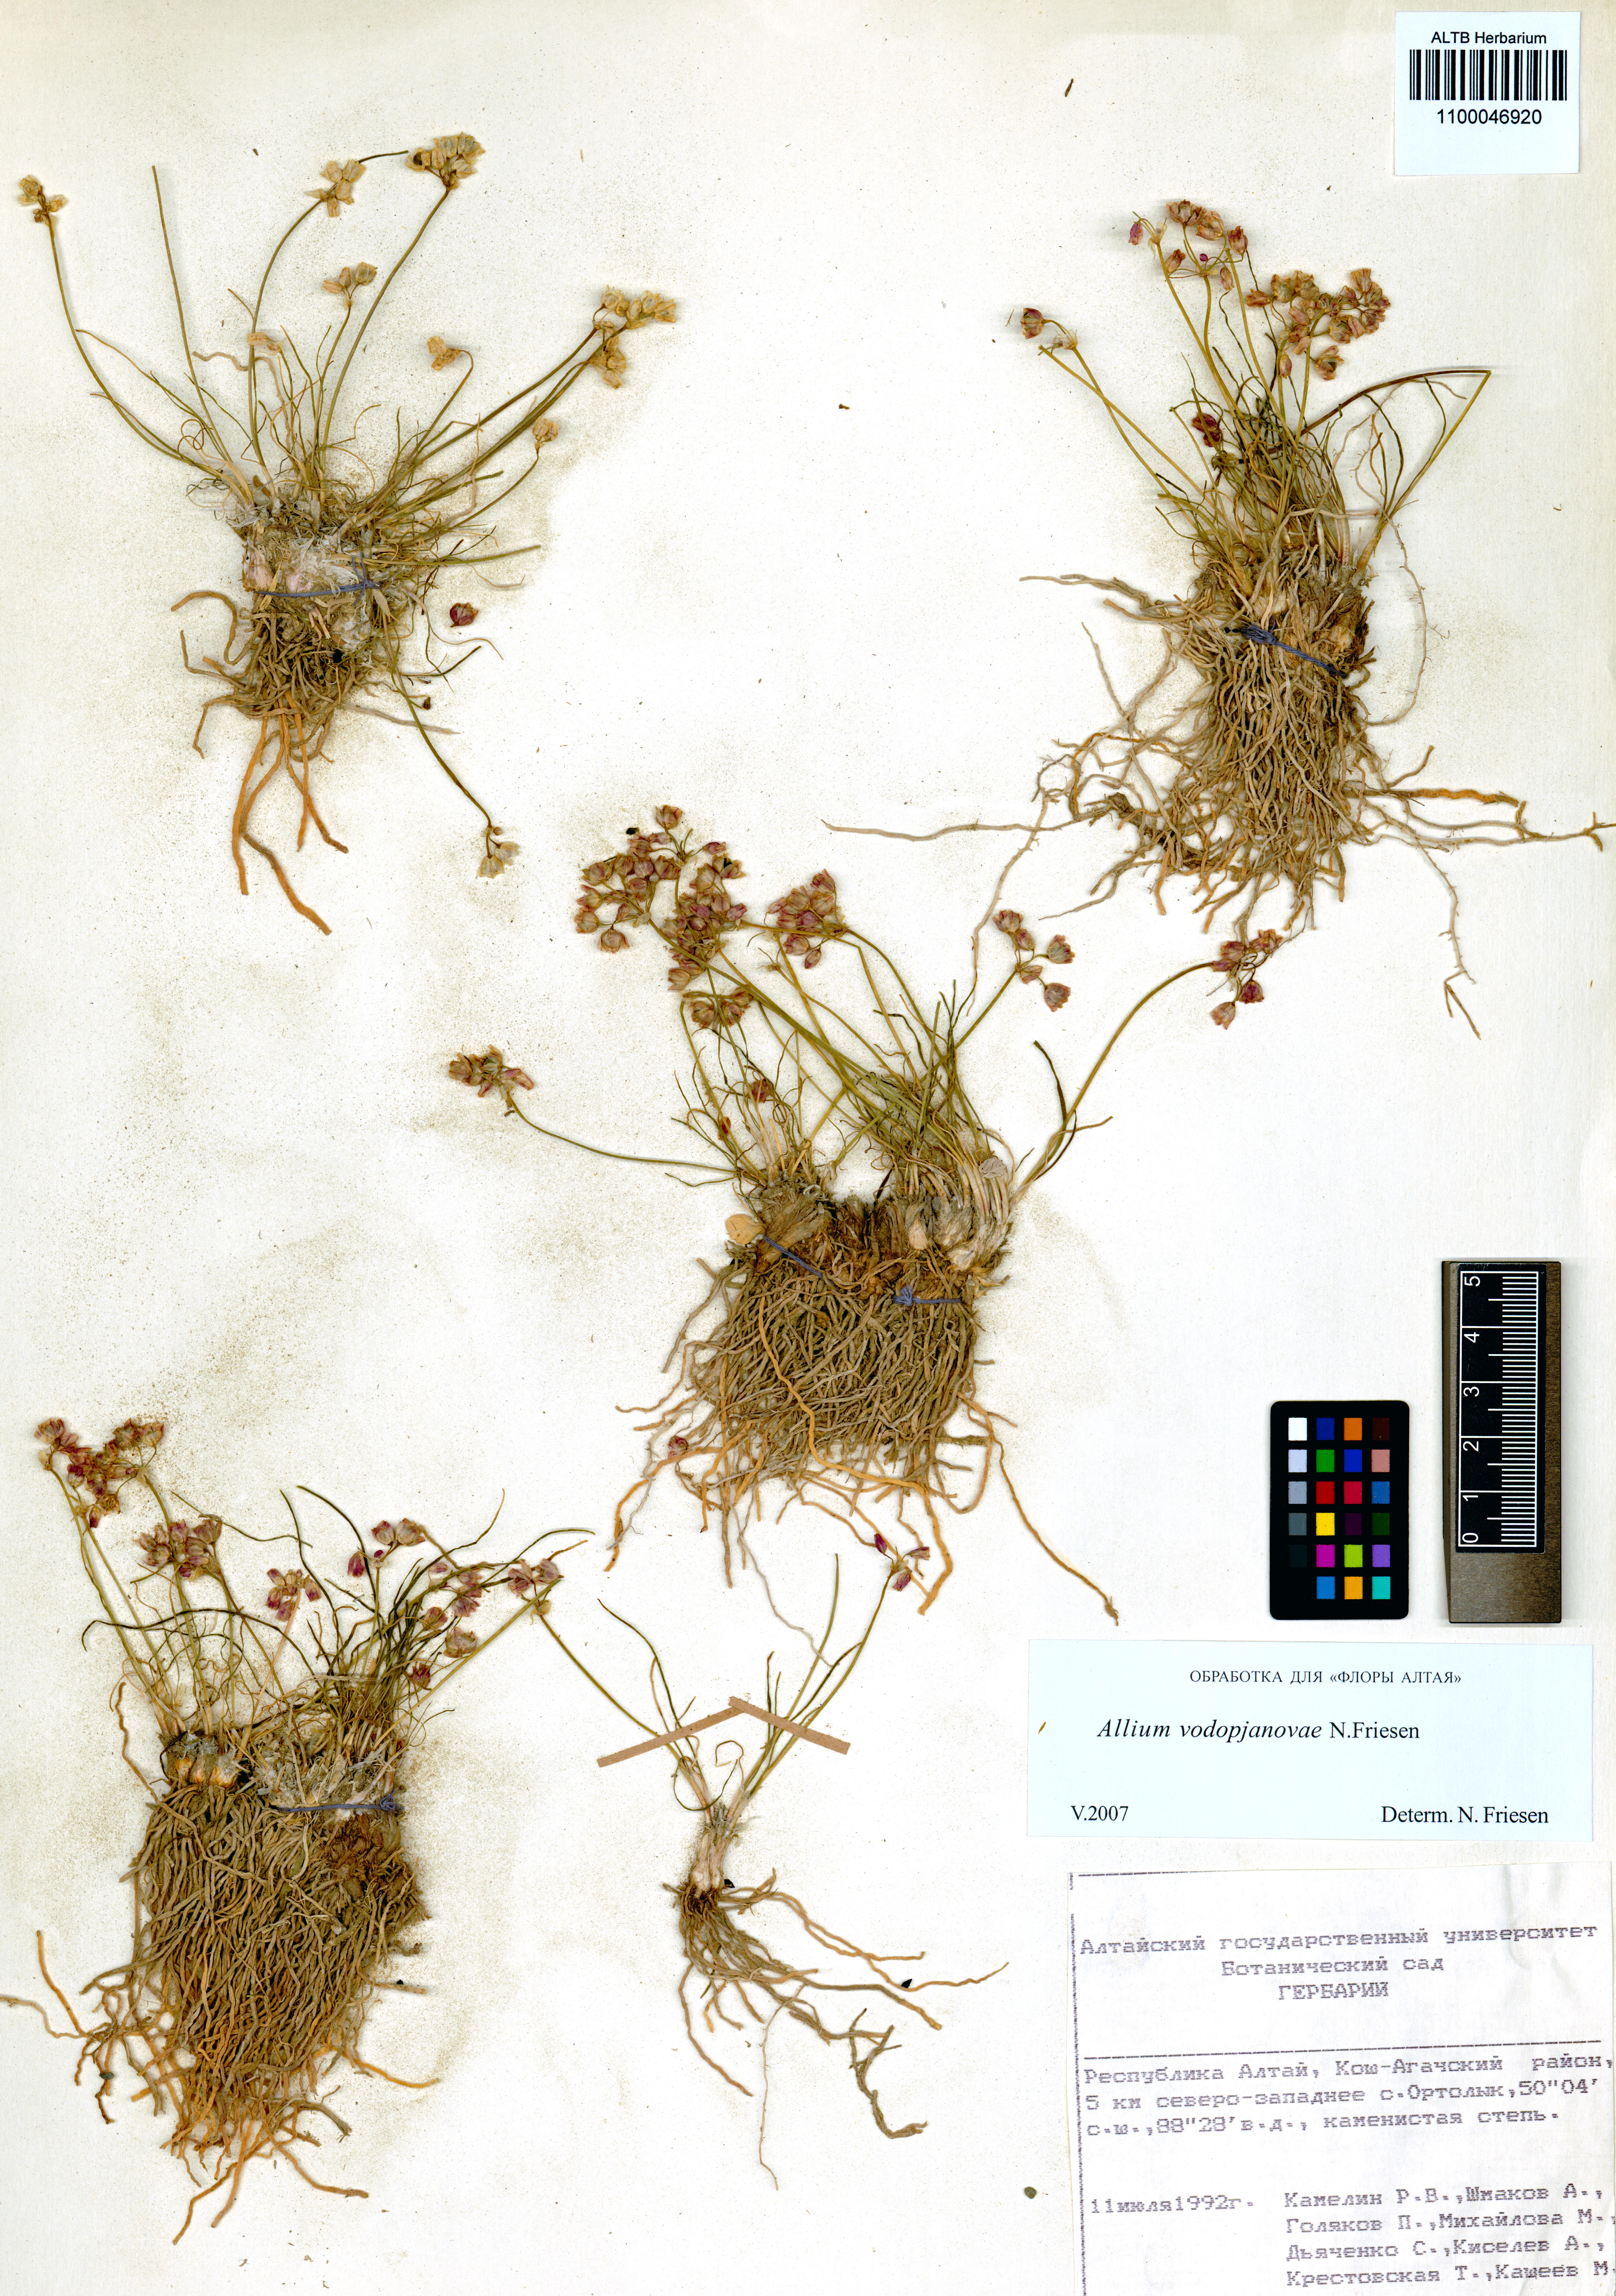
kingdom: Plantae
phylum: Tracheophyta
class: Liliopsida
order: Asparagales
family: Amaryllidaceae
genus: Allium
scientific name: Allium vodopjanovae
